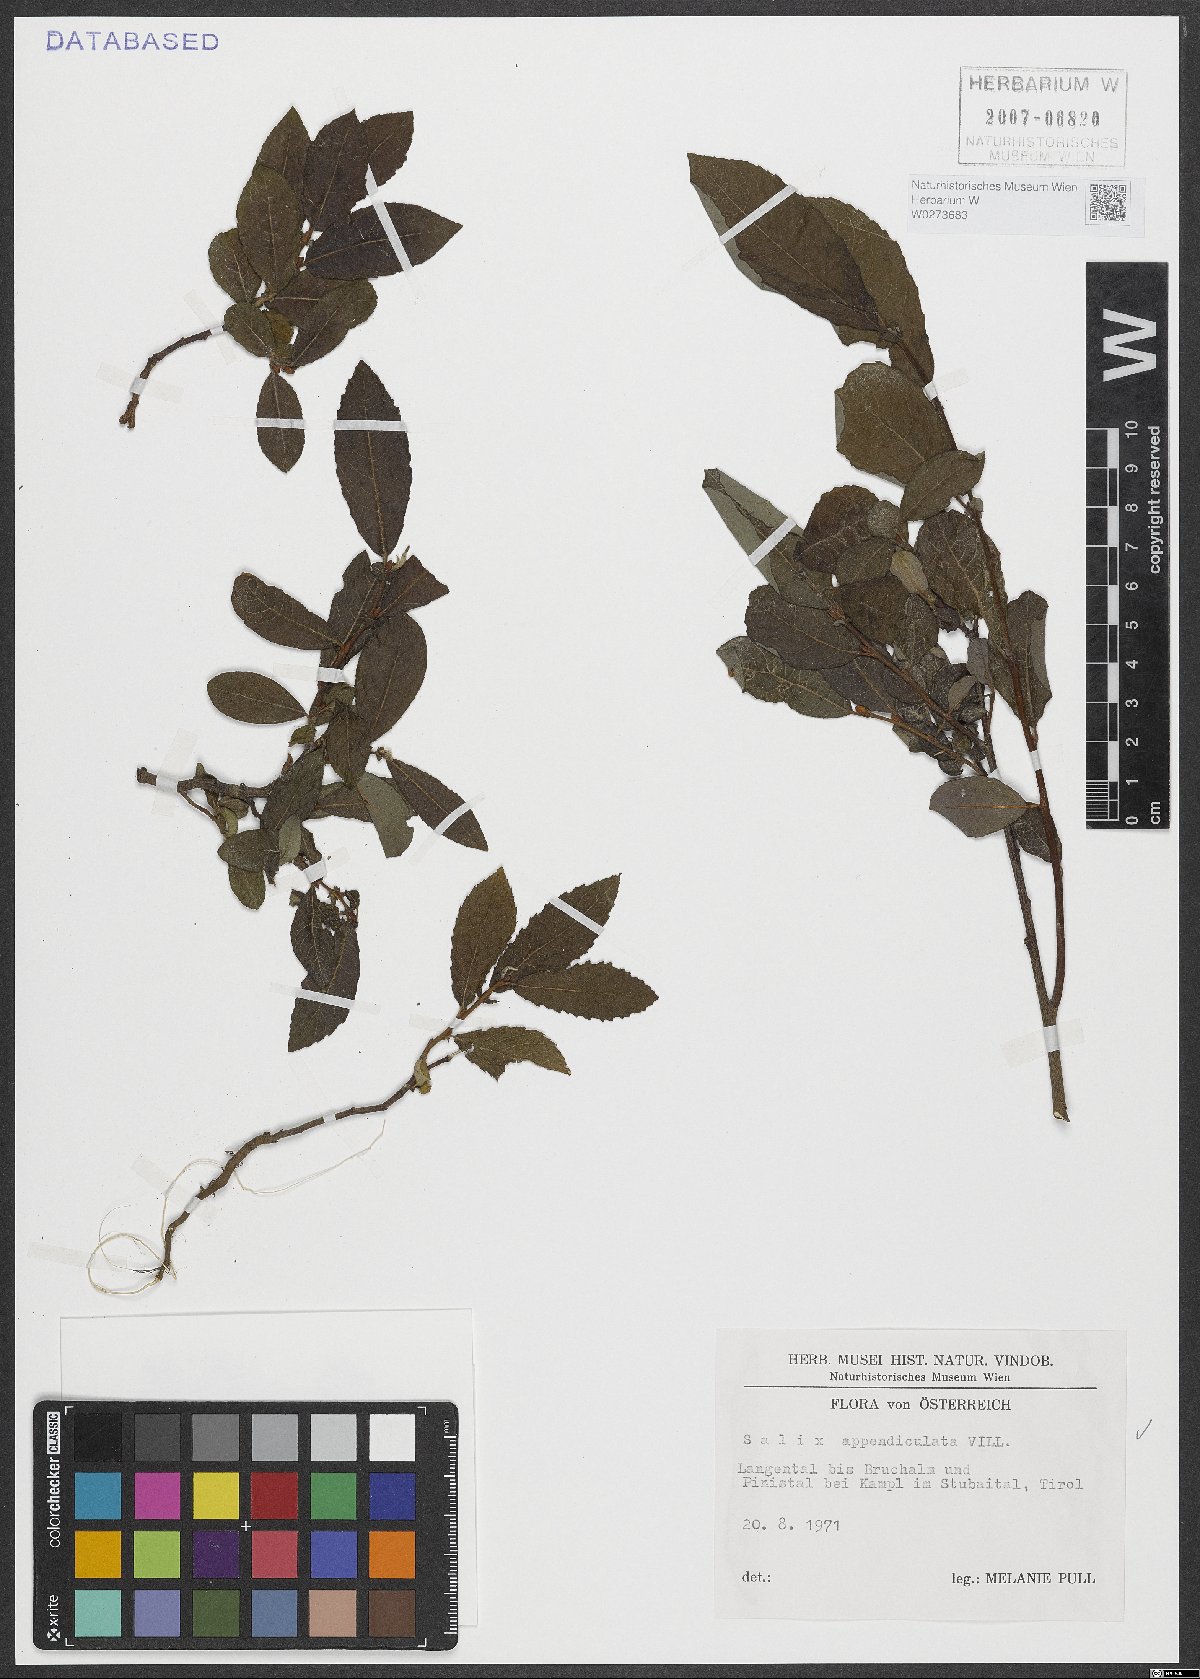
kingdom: Plantae
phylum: Tracheophyta
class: Magnoliopsida
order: Malpighiales
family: Salicaceae
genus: Salix
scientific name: Salix appendiculata
